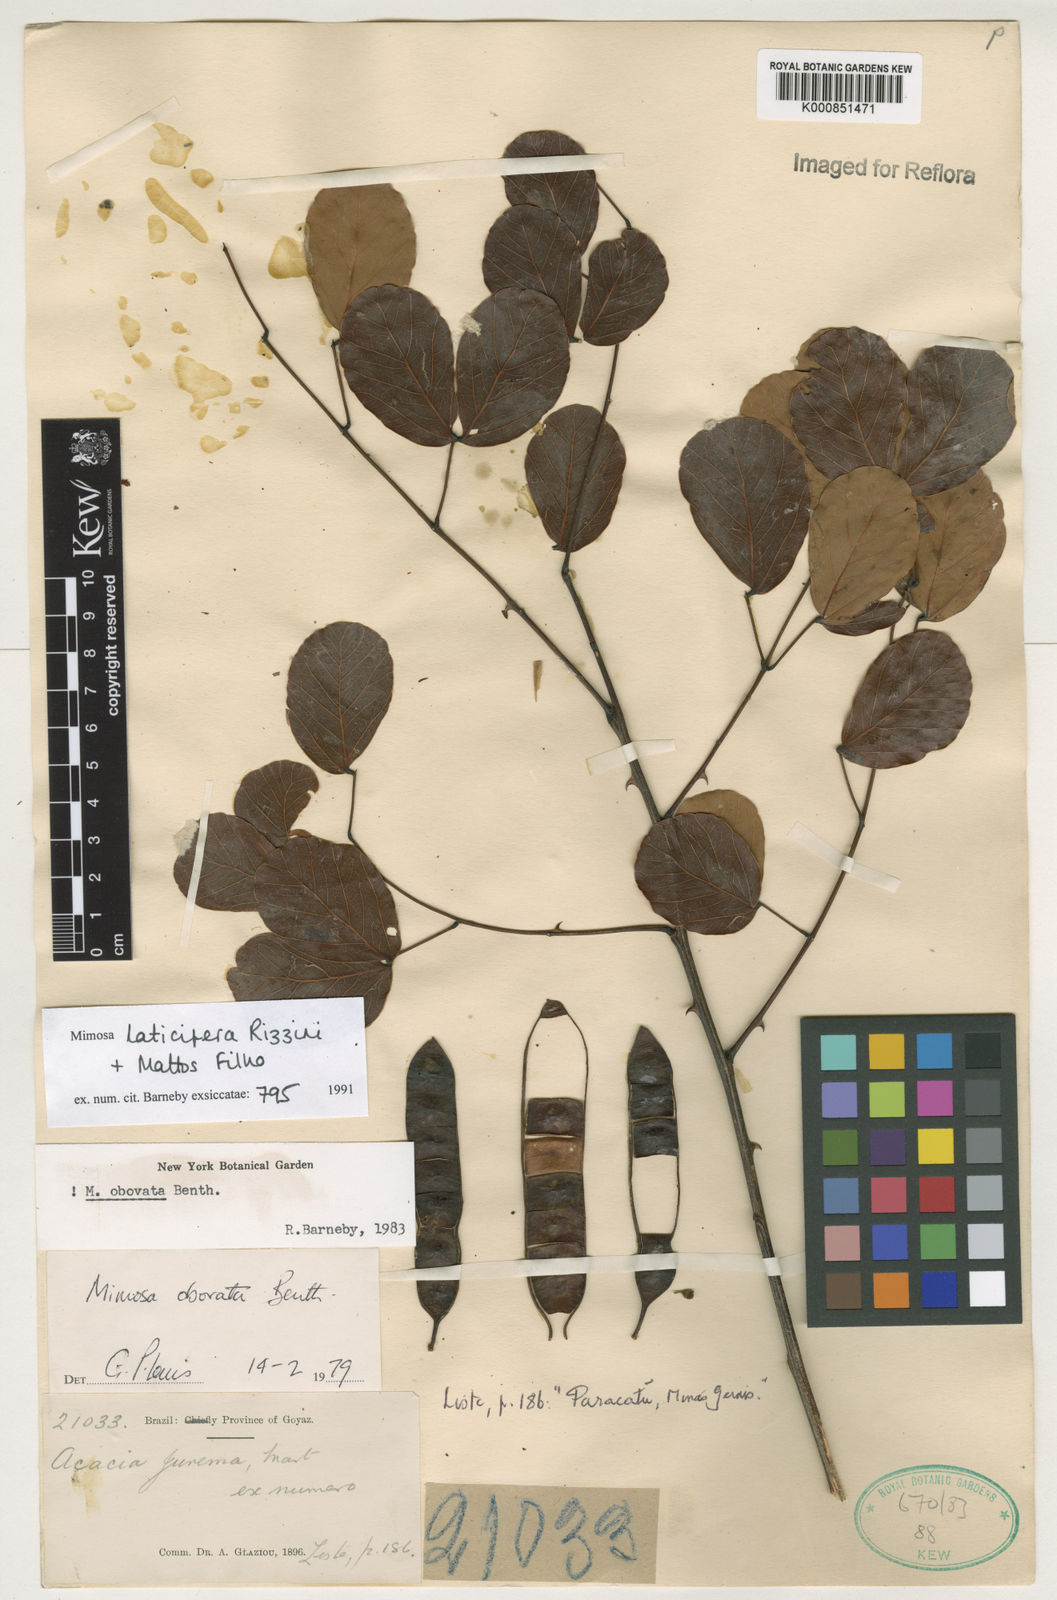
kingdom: Plantae
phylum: Tracheophyta
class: Magnoliopsida
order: Fabales
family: Fabaceae
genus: Mimosa
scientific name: Mimosa laticifera
